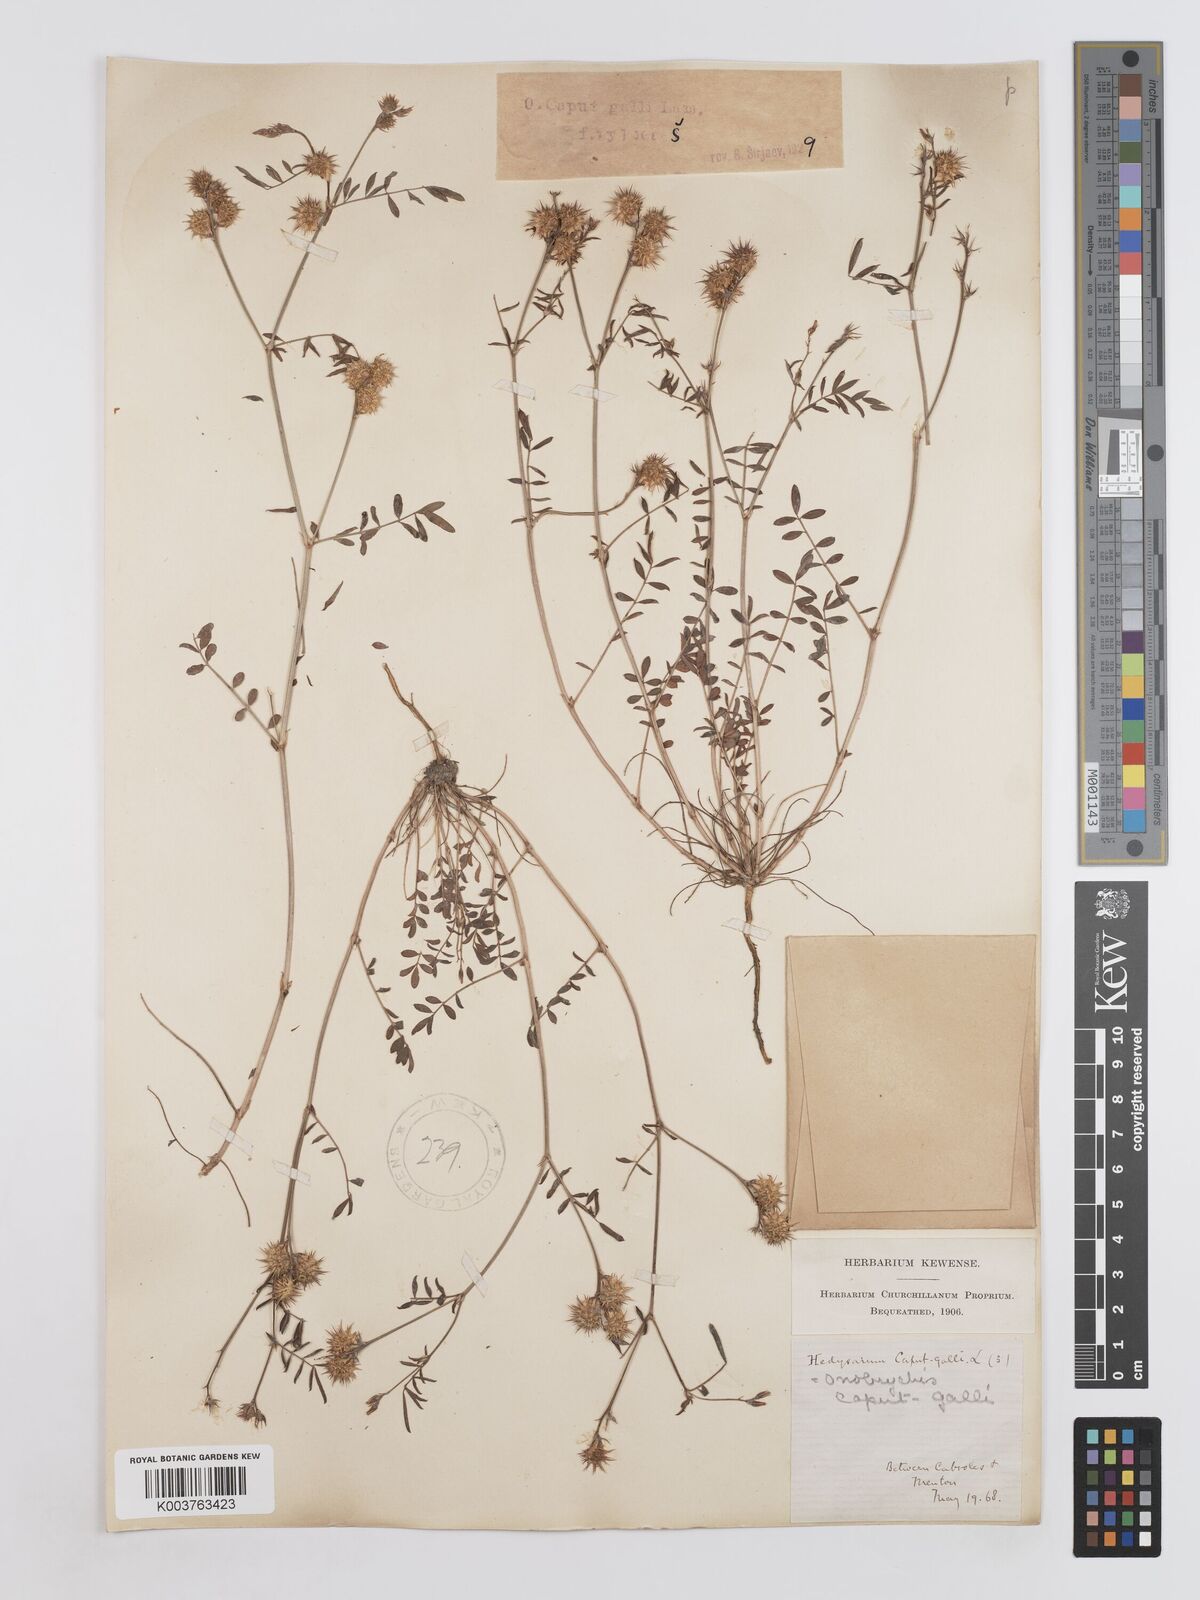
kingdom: Plantae
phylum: Tracheophyta
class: Magnoliopsida
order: Fabales
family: Fabaceae
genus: Onobrychis
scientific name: Onobrychis caput-galli
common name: Cockscomb sainfoin
